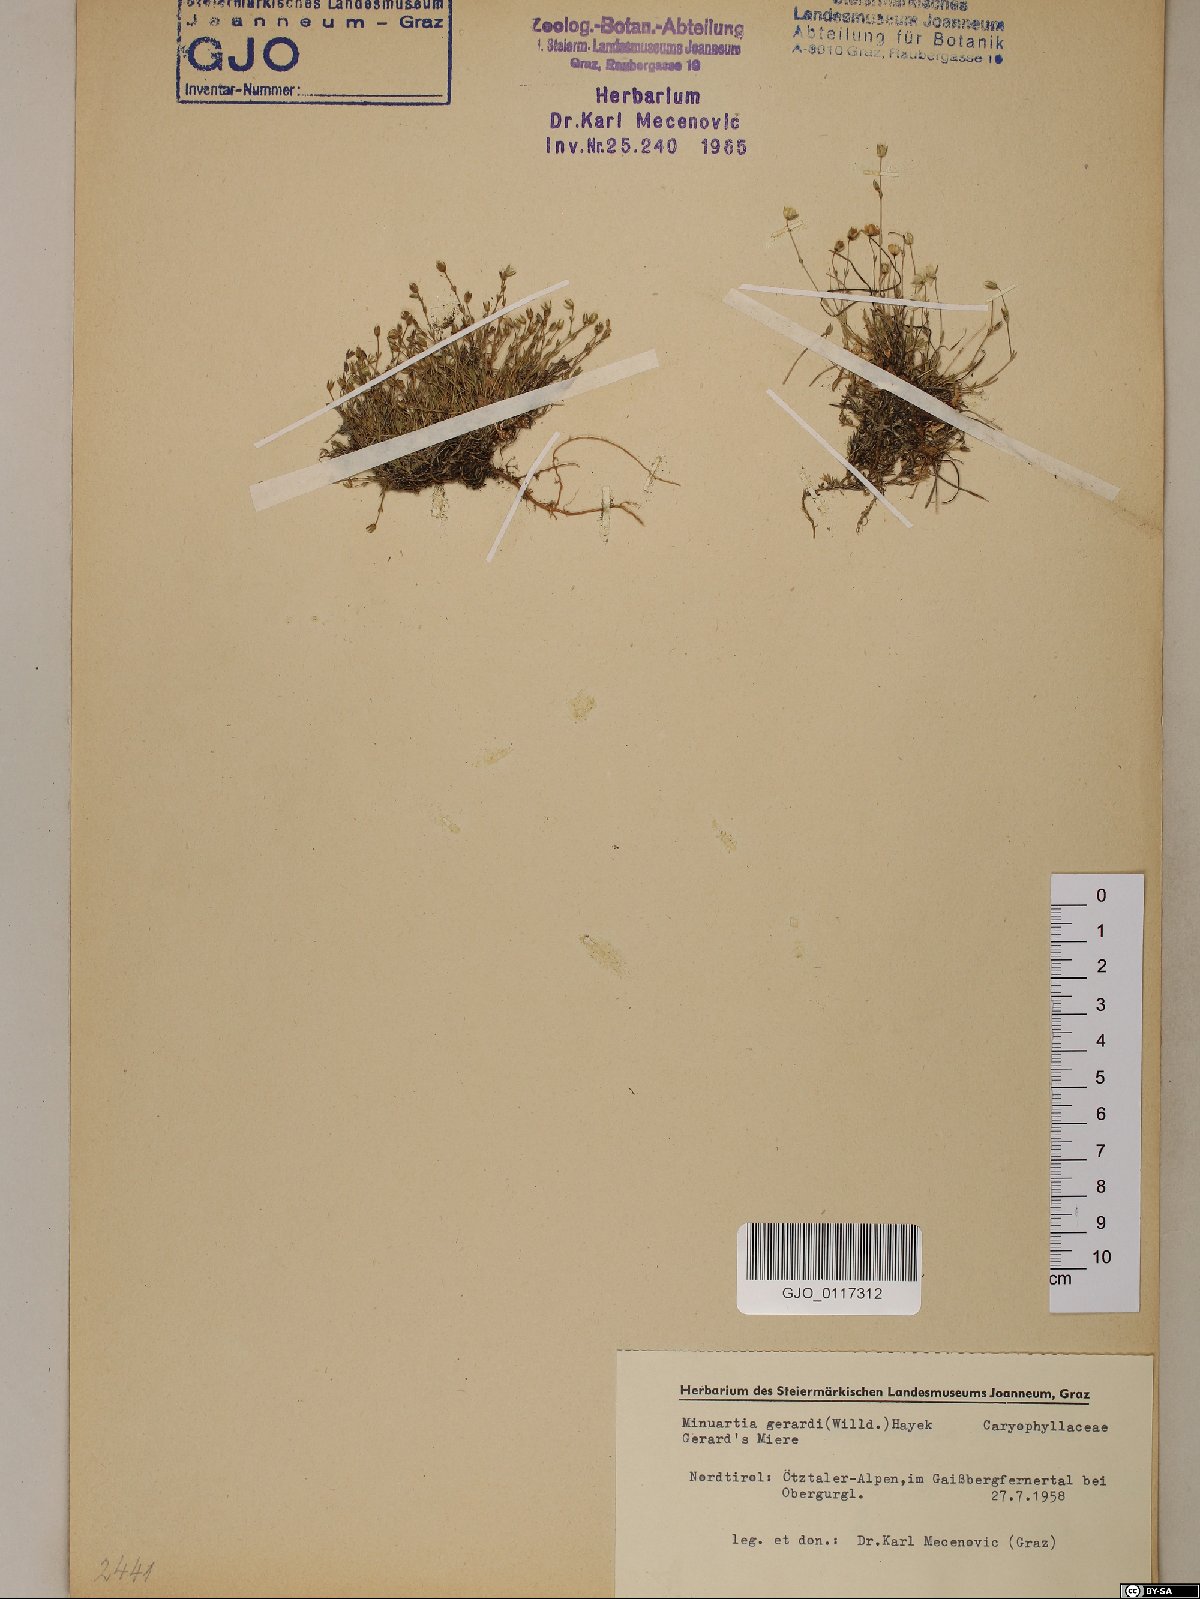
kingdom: Plantae
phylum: Tracheophyta
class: Magnoliopsida
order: Caryophyllales
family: Caryophyllaceae
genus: Sabulina
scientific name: Sabulina verna
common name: Spring sandwort
